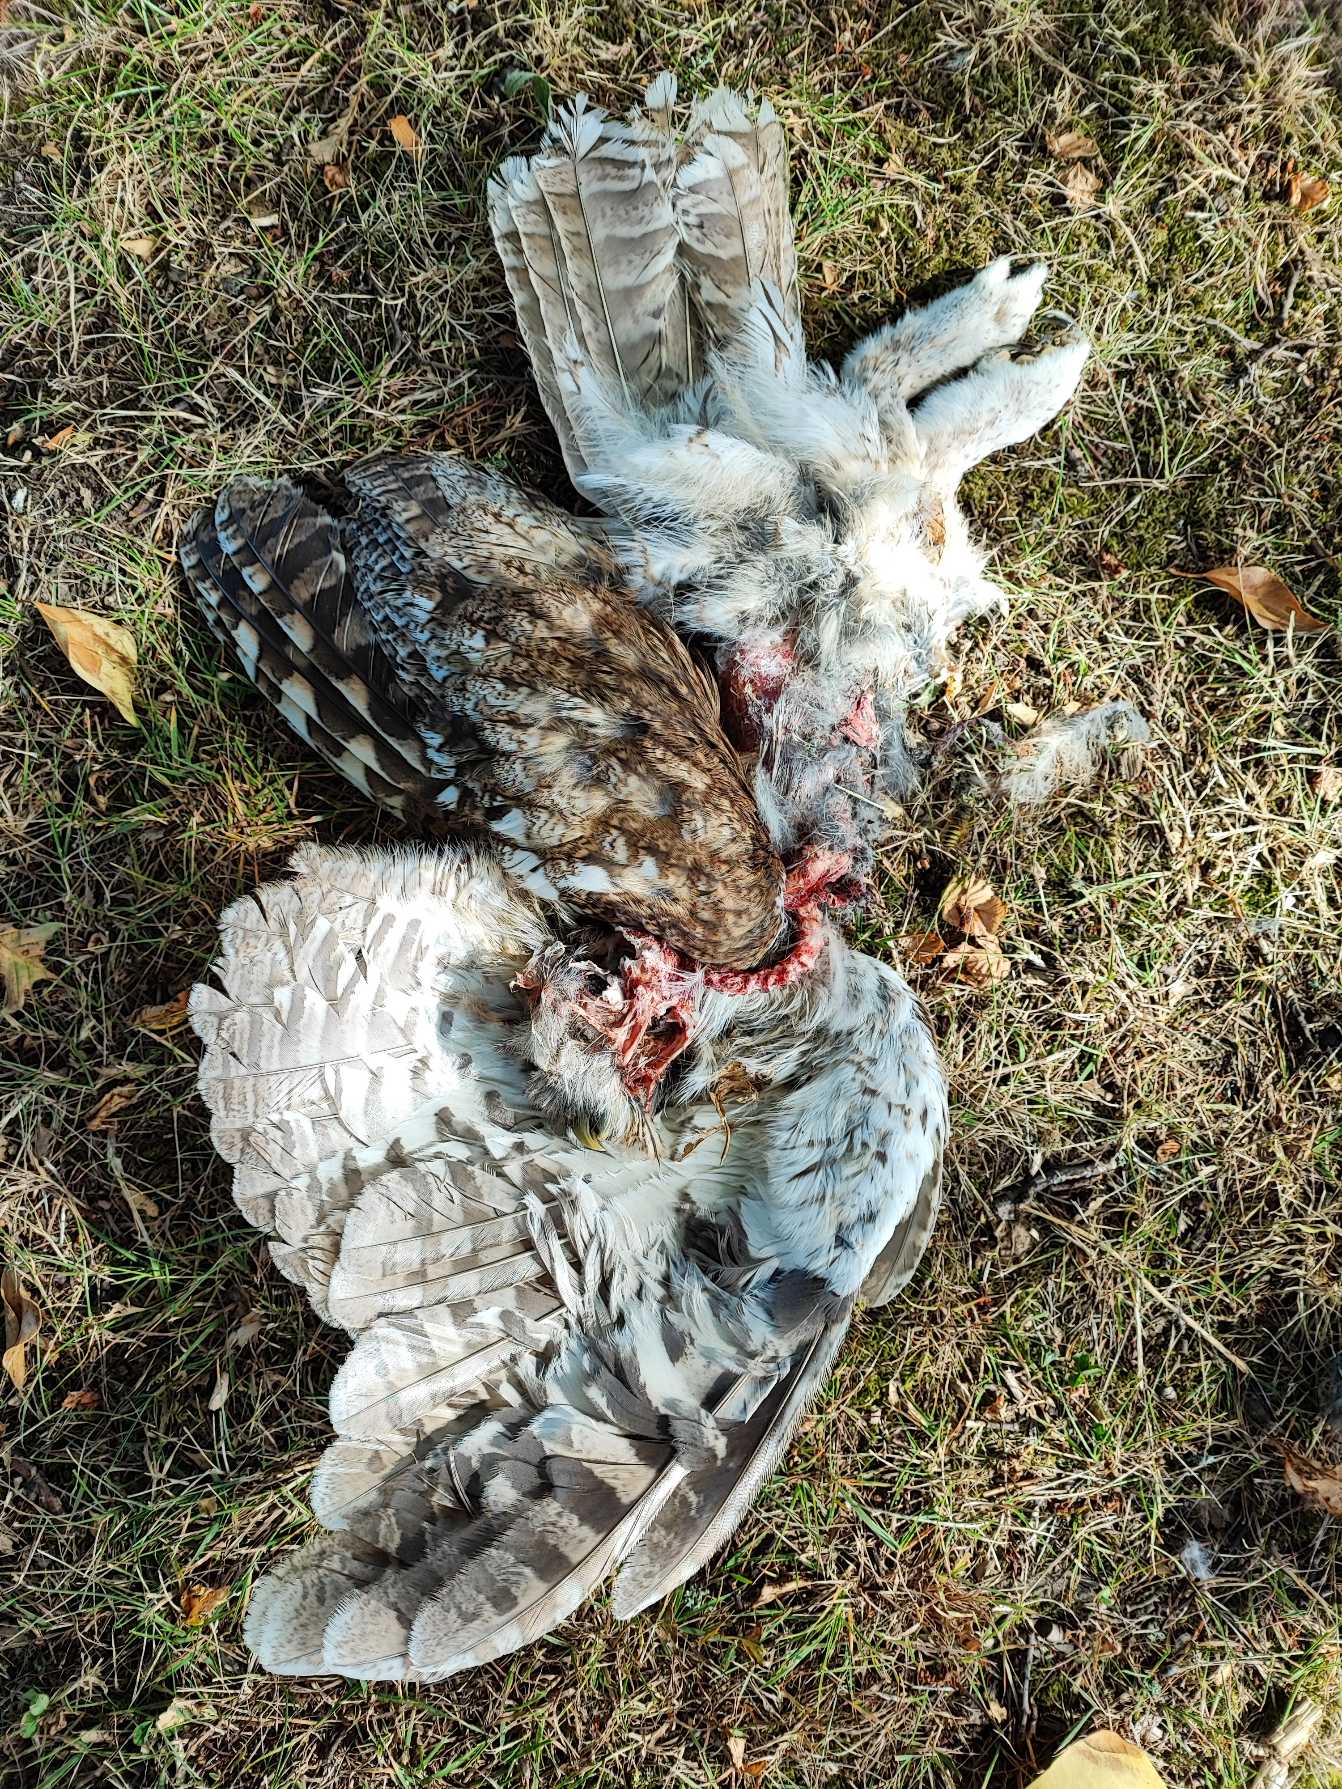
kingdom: Animalia
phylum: Chordata
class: Aves
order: Strigiformes
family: Strigidae
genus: Strix
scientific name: Strix aluco
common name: Natugle
